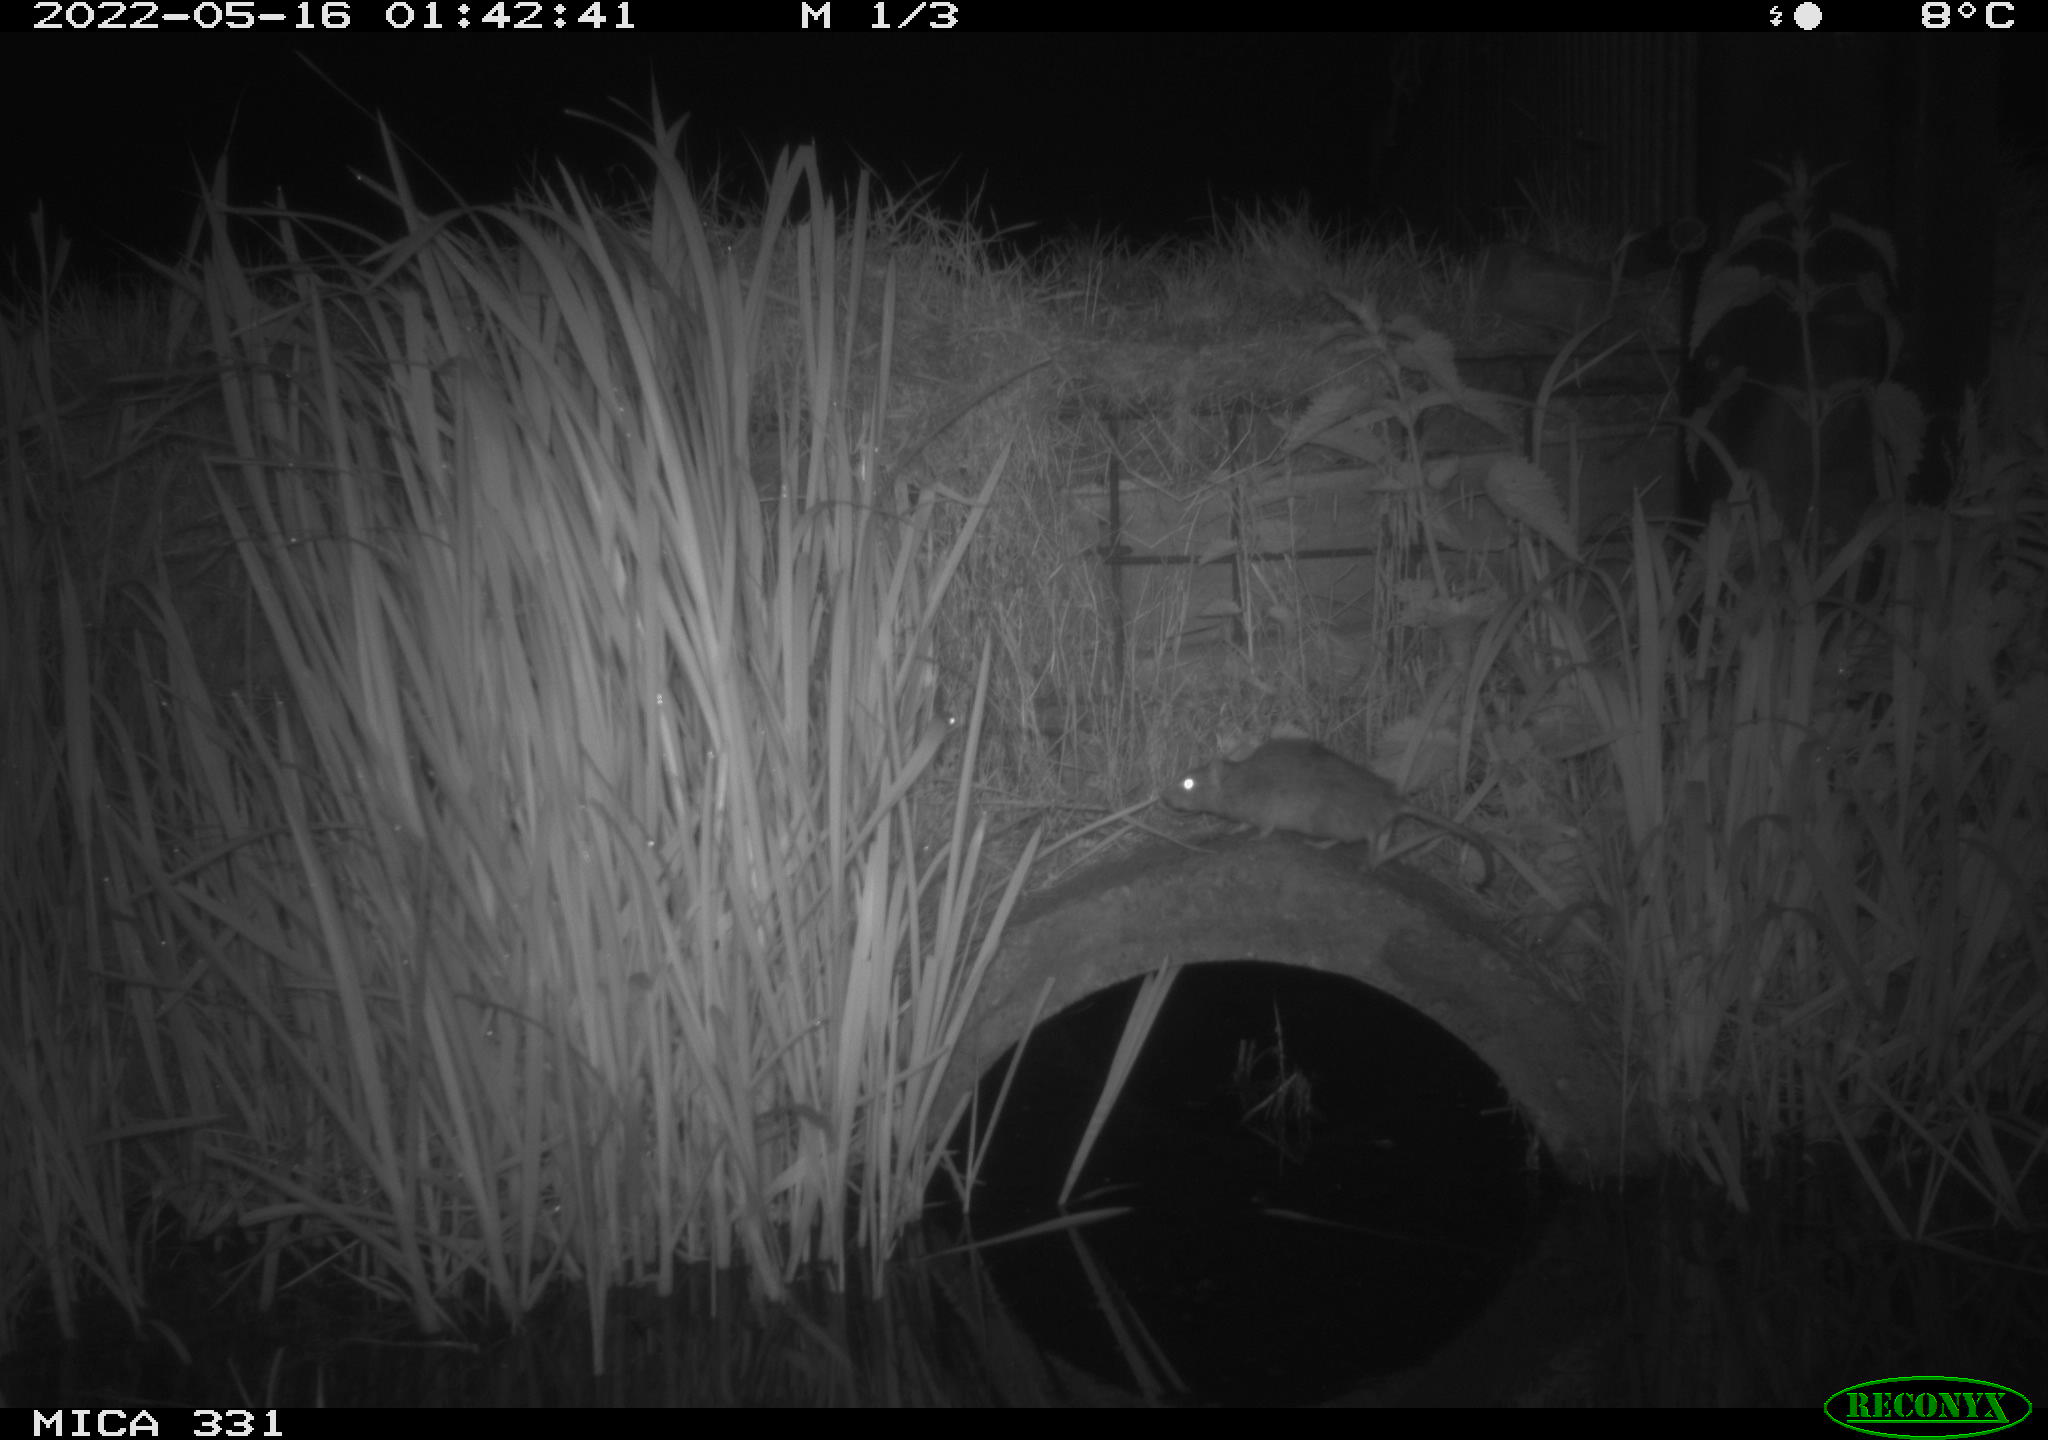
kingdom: Animalia
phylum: Chordata
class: Mammalia
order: Rodentia
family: Muridae
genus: Rattus
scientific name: Rattus norvegicus
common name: Brown rat
